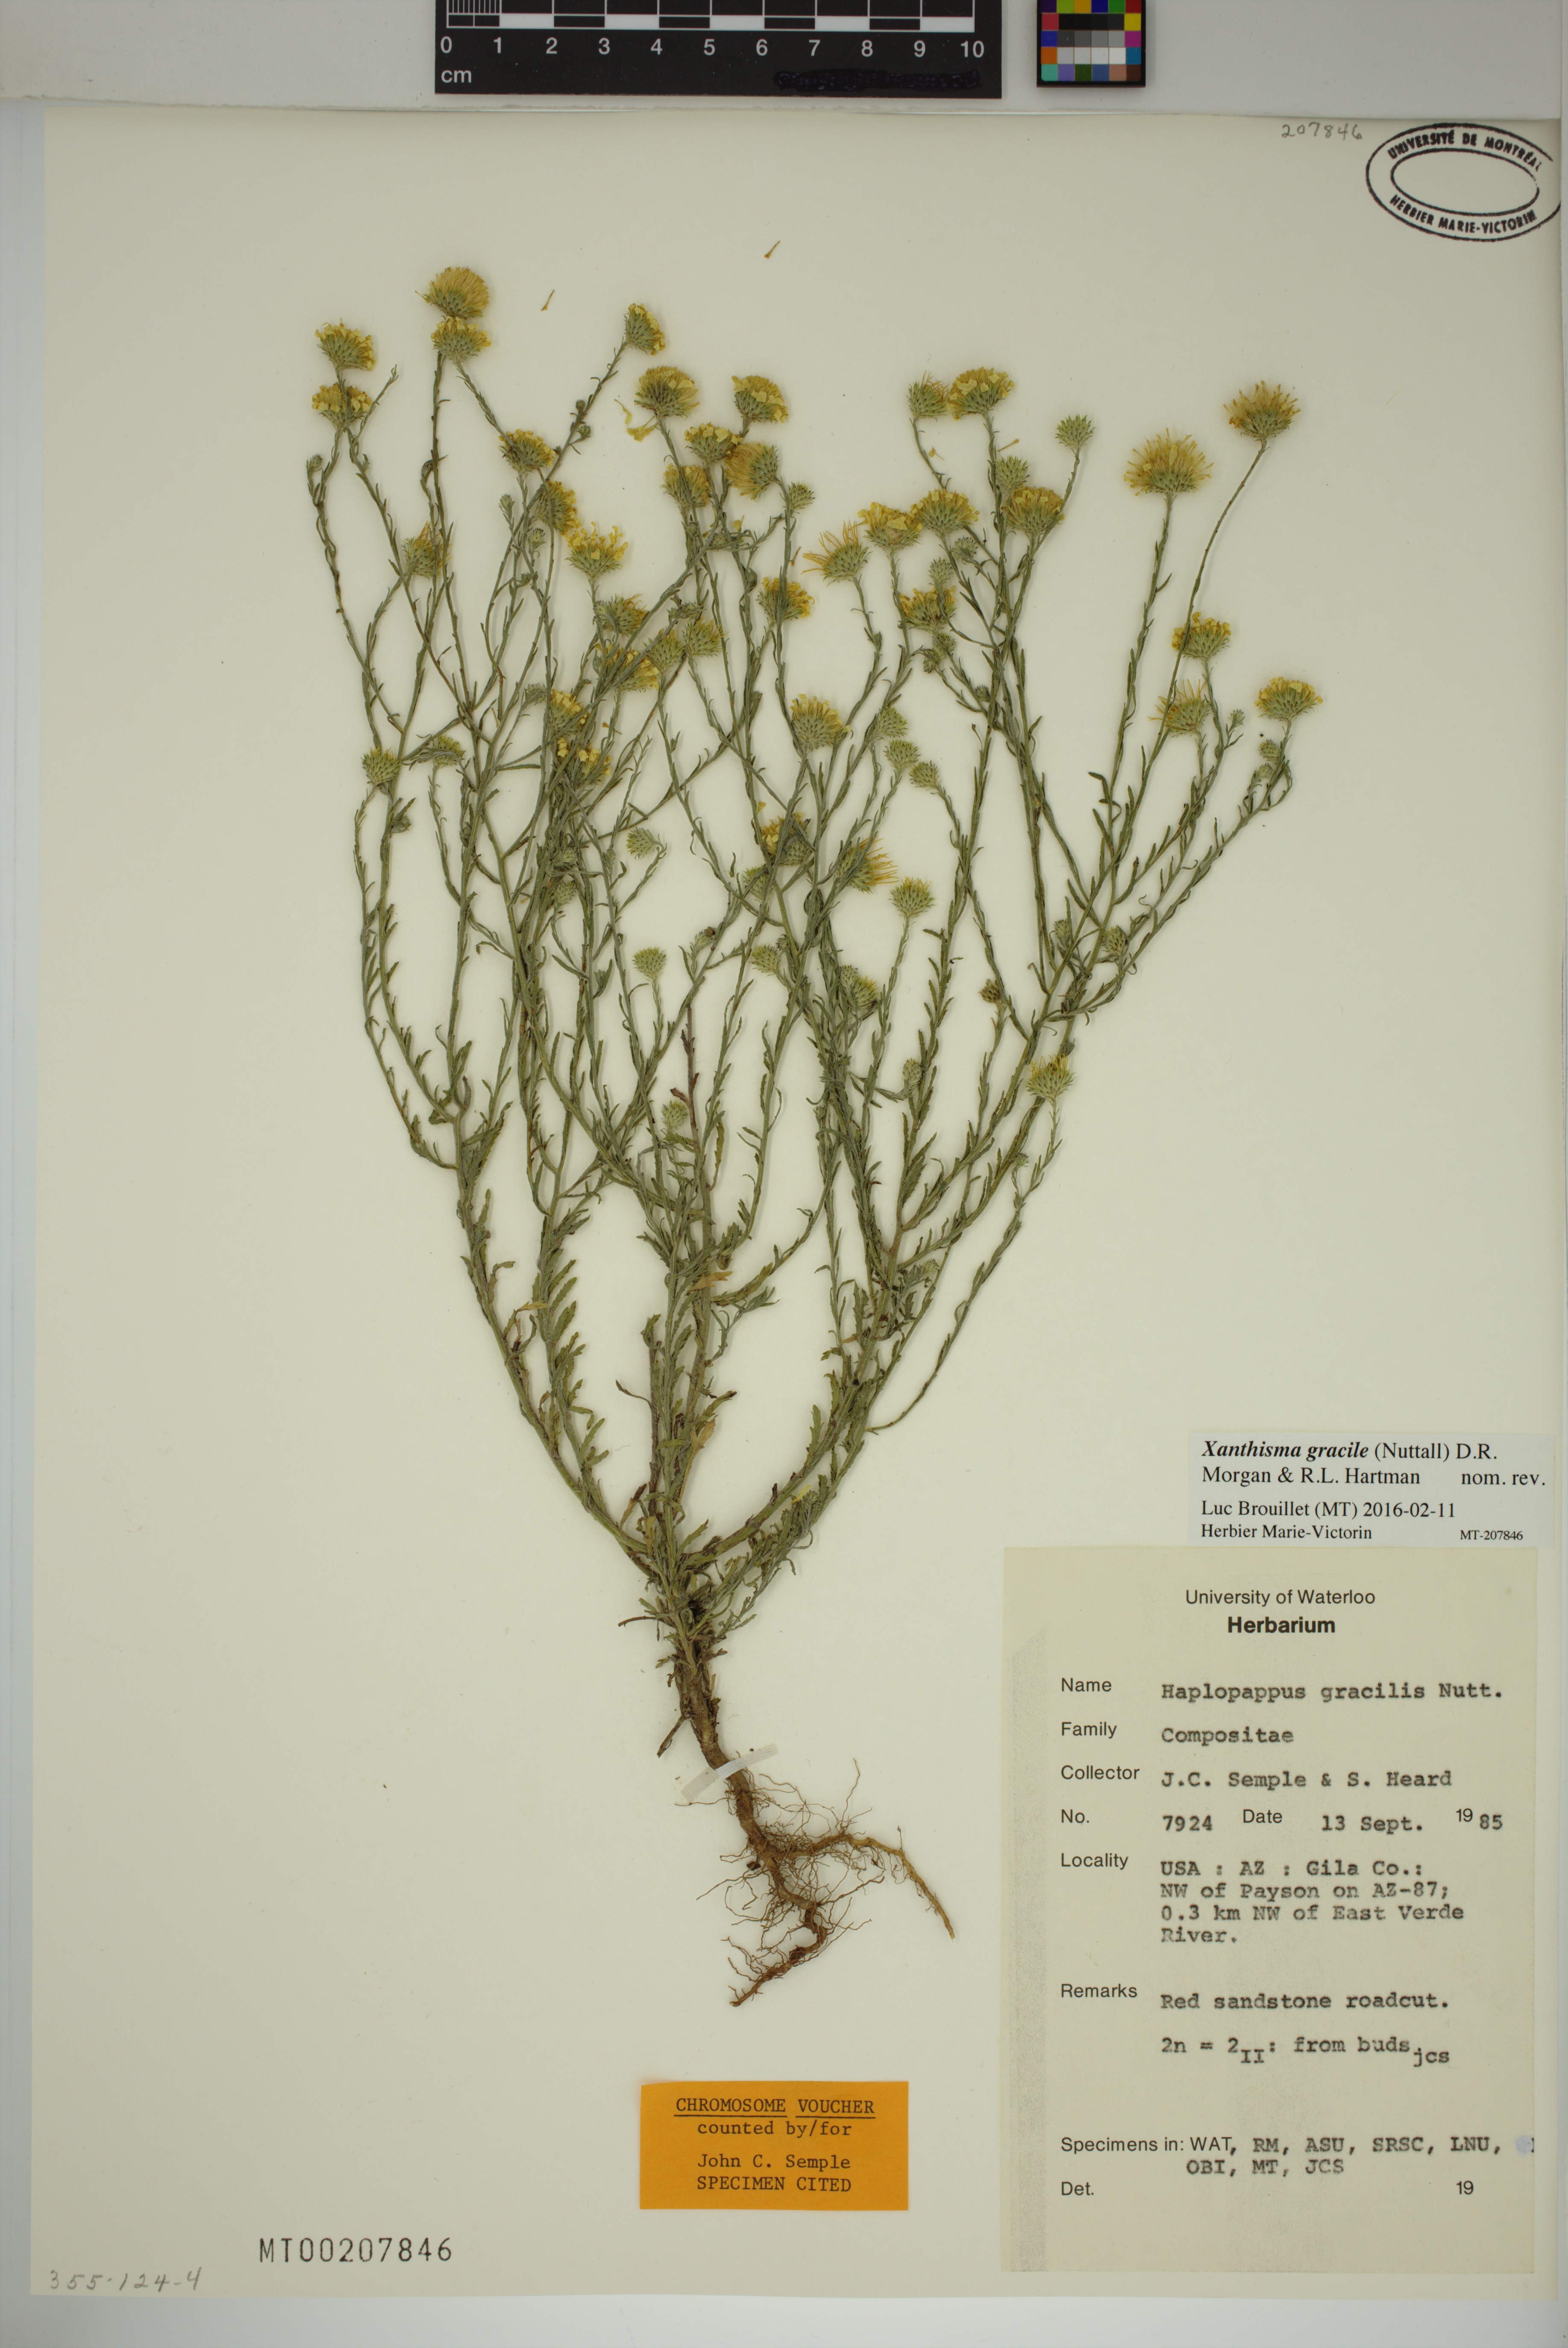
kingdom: Plantae
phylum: Tracheophyta
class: Magnoliopsida
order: Asterales
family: Asteraceae
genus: Xanthisma
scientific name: Xanthisma gracile
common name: Slender goldenweed
